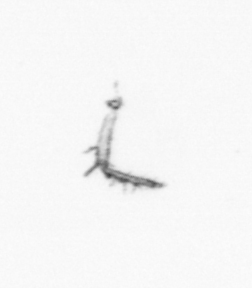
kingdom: Chromista
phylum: Ochrophyta
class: Bacillariophyceae
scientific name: Bacillariophyceae
